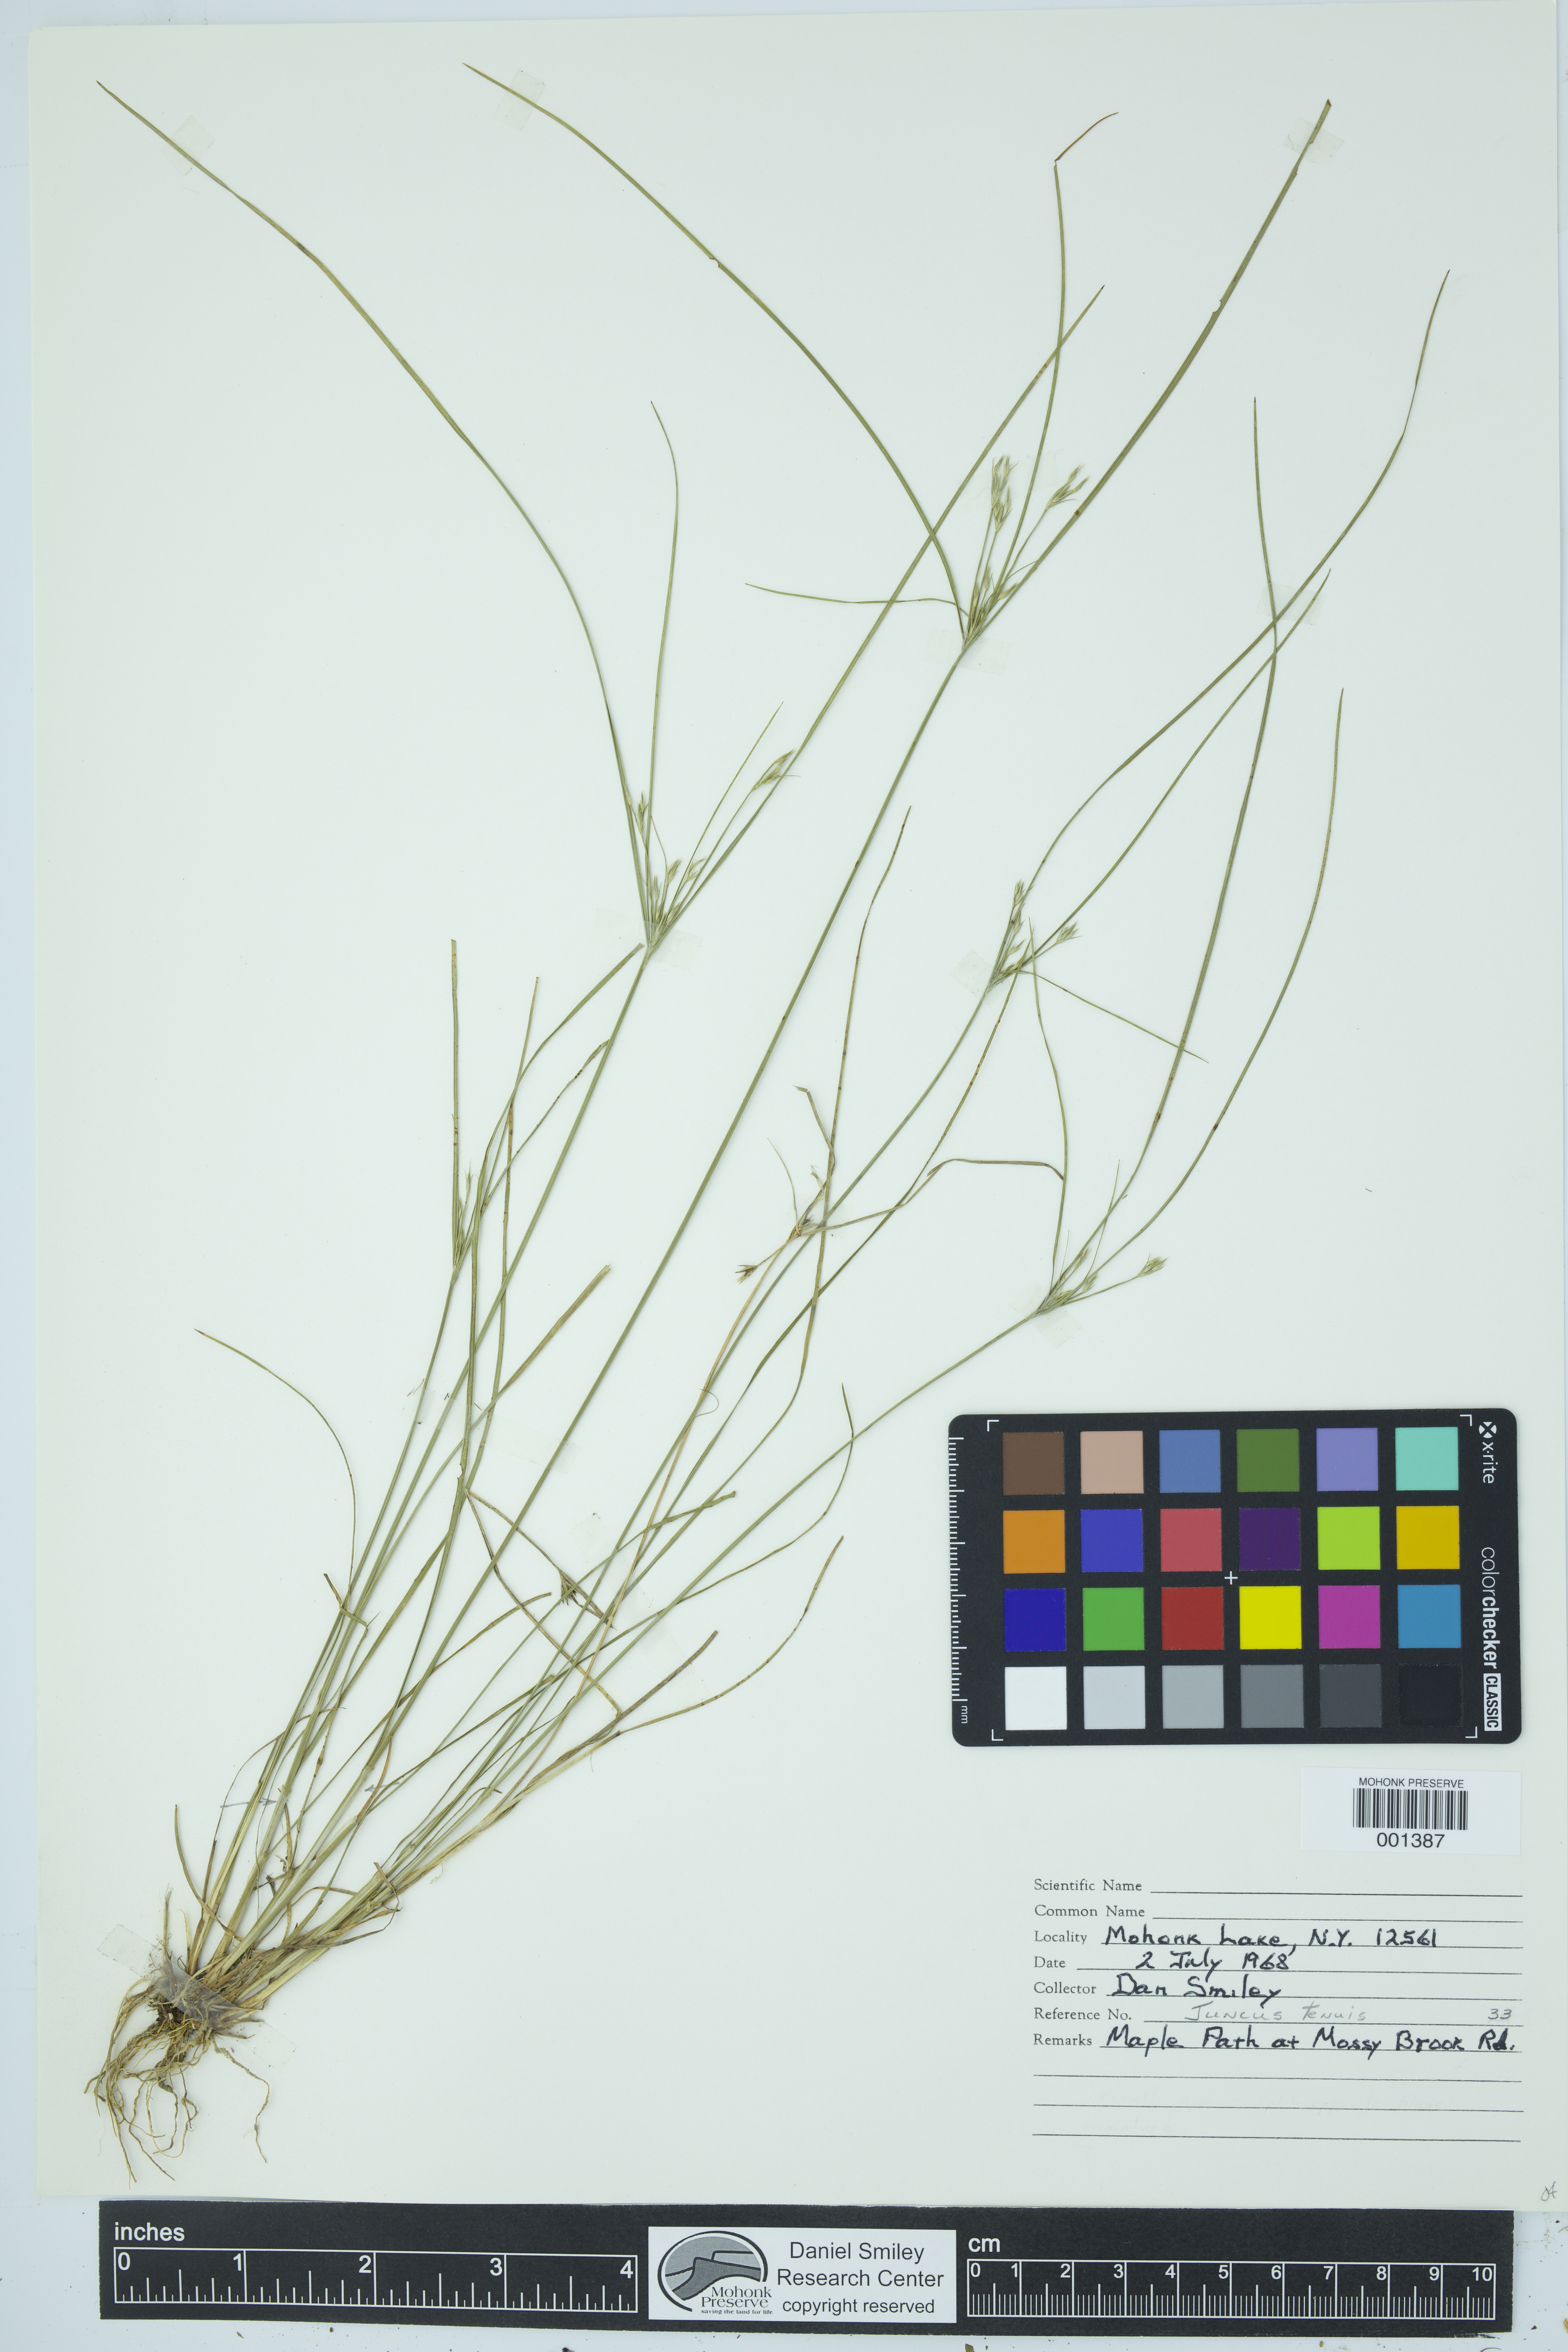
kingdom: Plantae
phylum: Tracheophyta
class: Liliopsida
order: Poales
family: Juncaceae
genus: Juncus
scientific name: Juncus tenuis
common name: Slender rush
